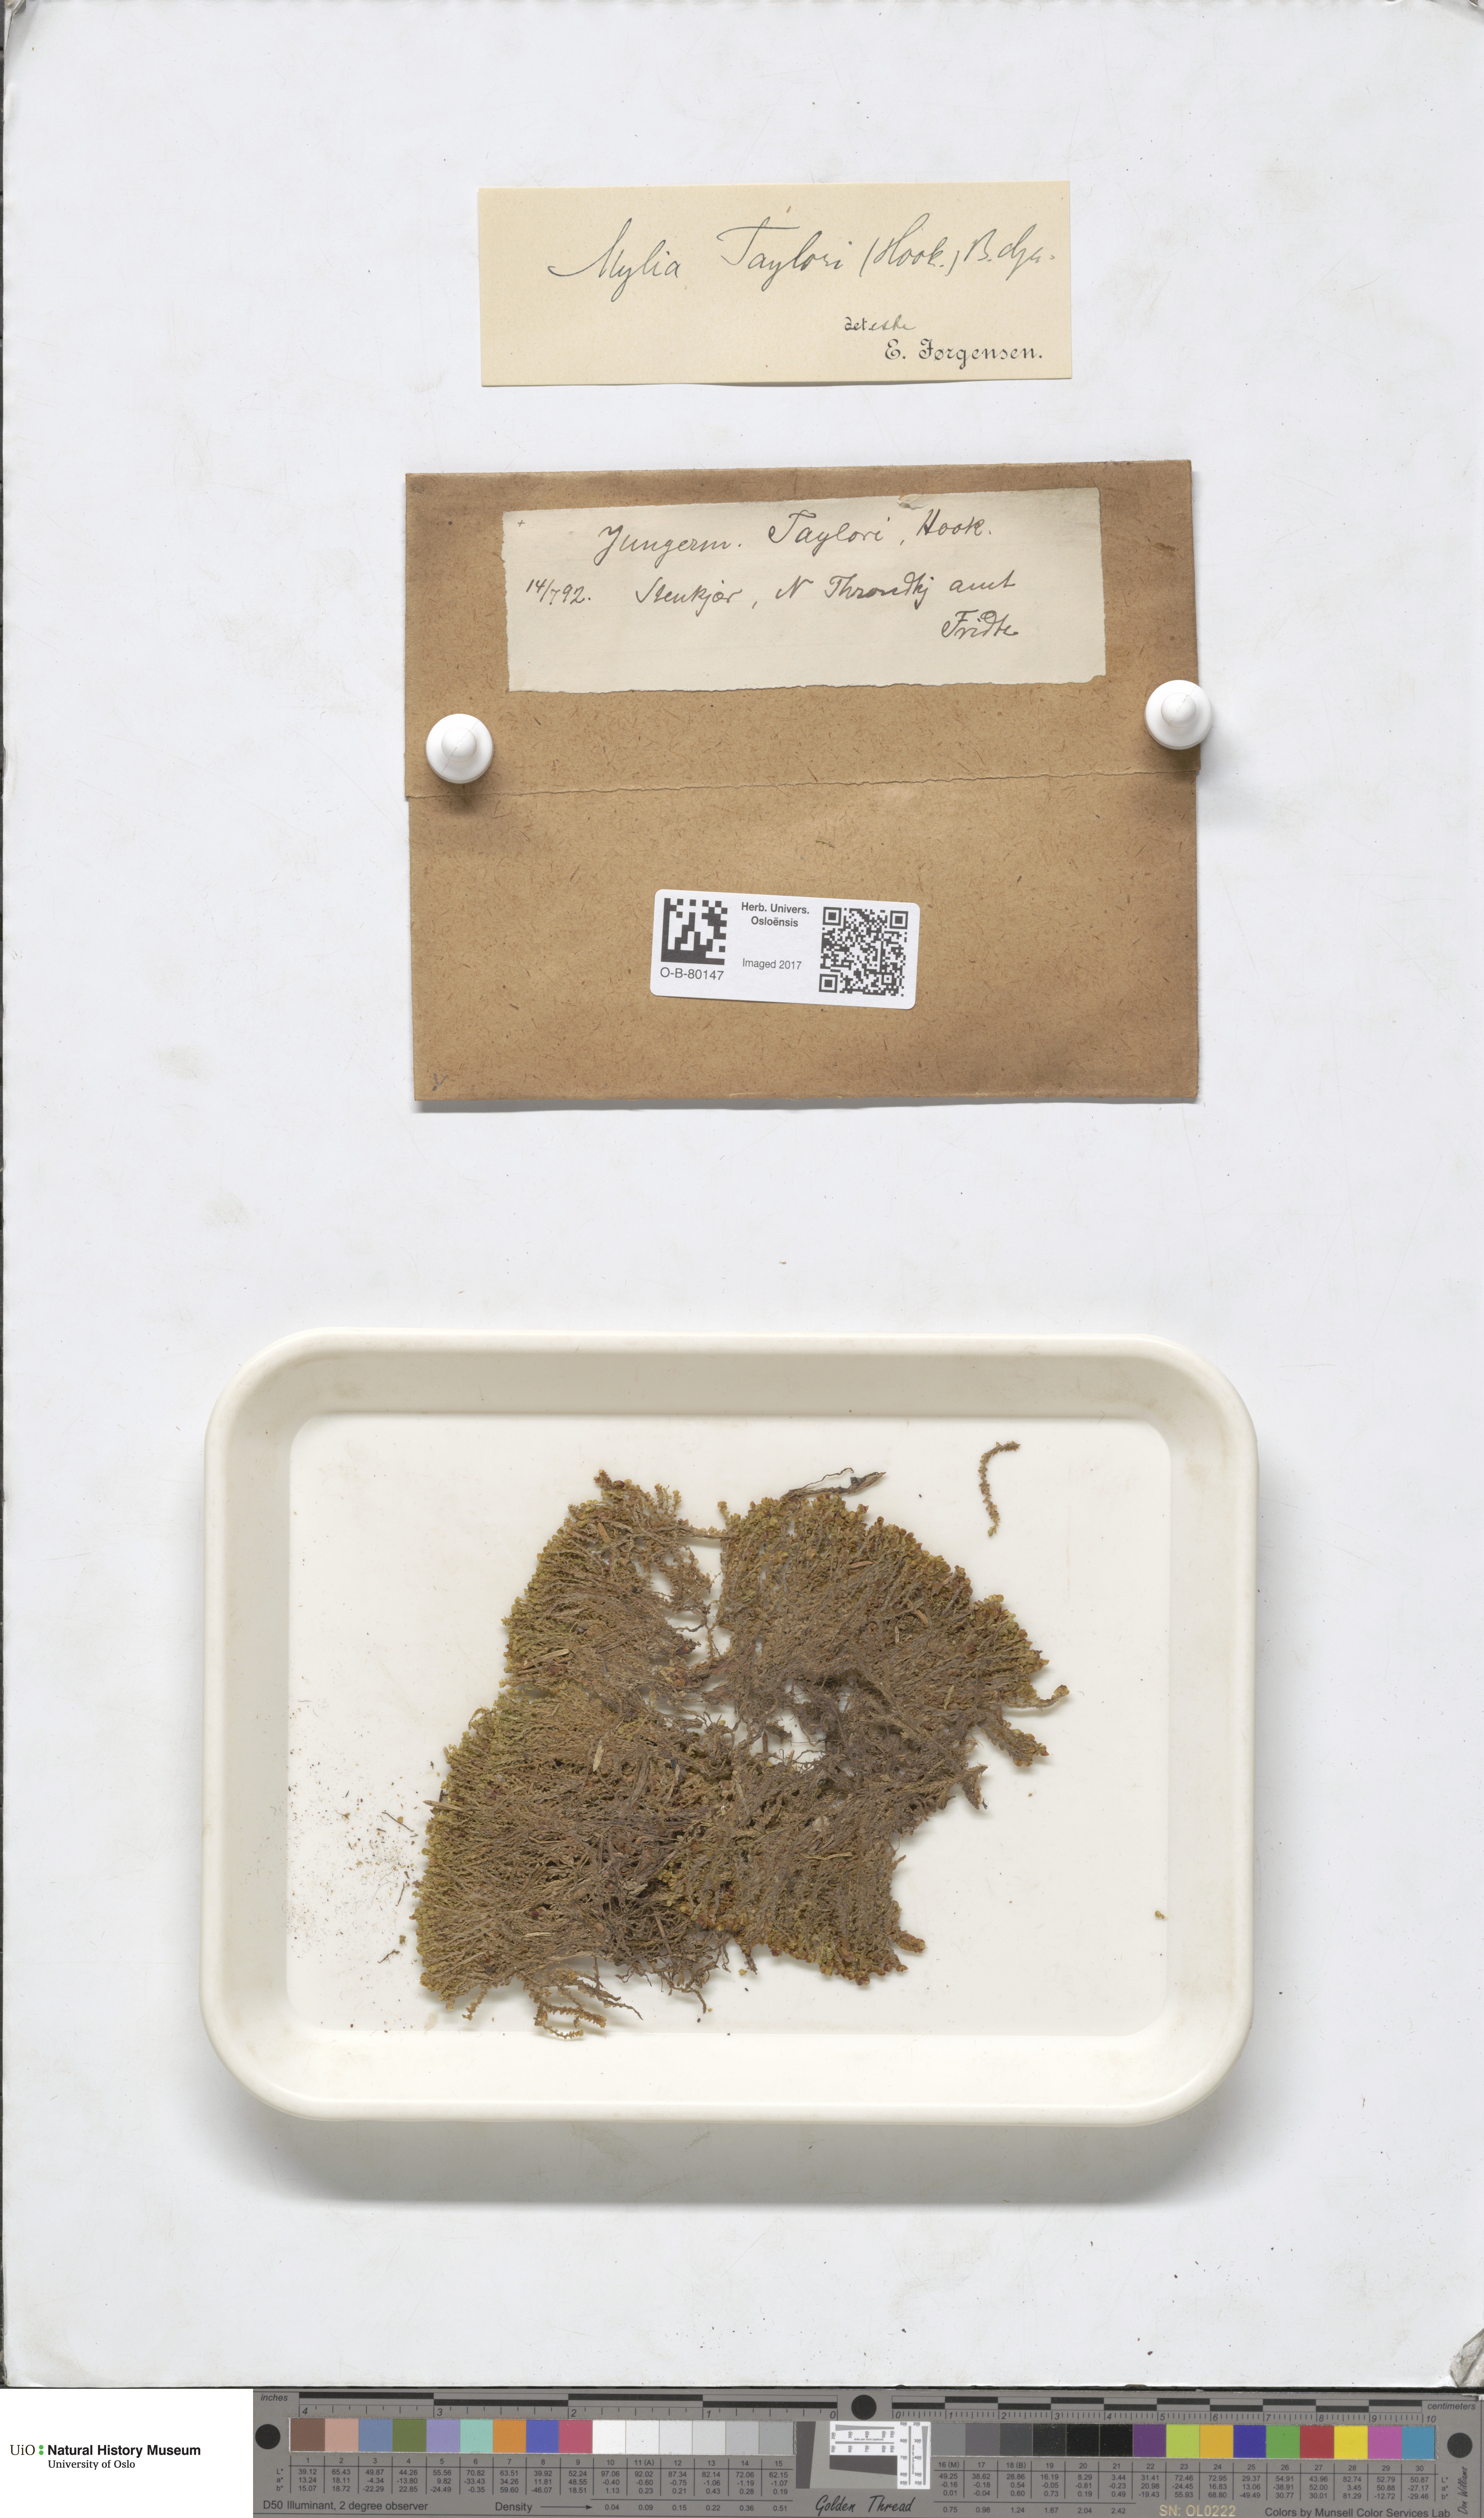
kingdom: Plantae
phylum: Marchantiophyta
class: Jungermanniopsida
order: Jungermanniales
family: Myliaceae
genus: Mylia
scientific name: Mylia taylorii
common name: Taylor s flapwort
